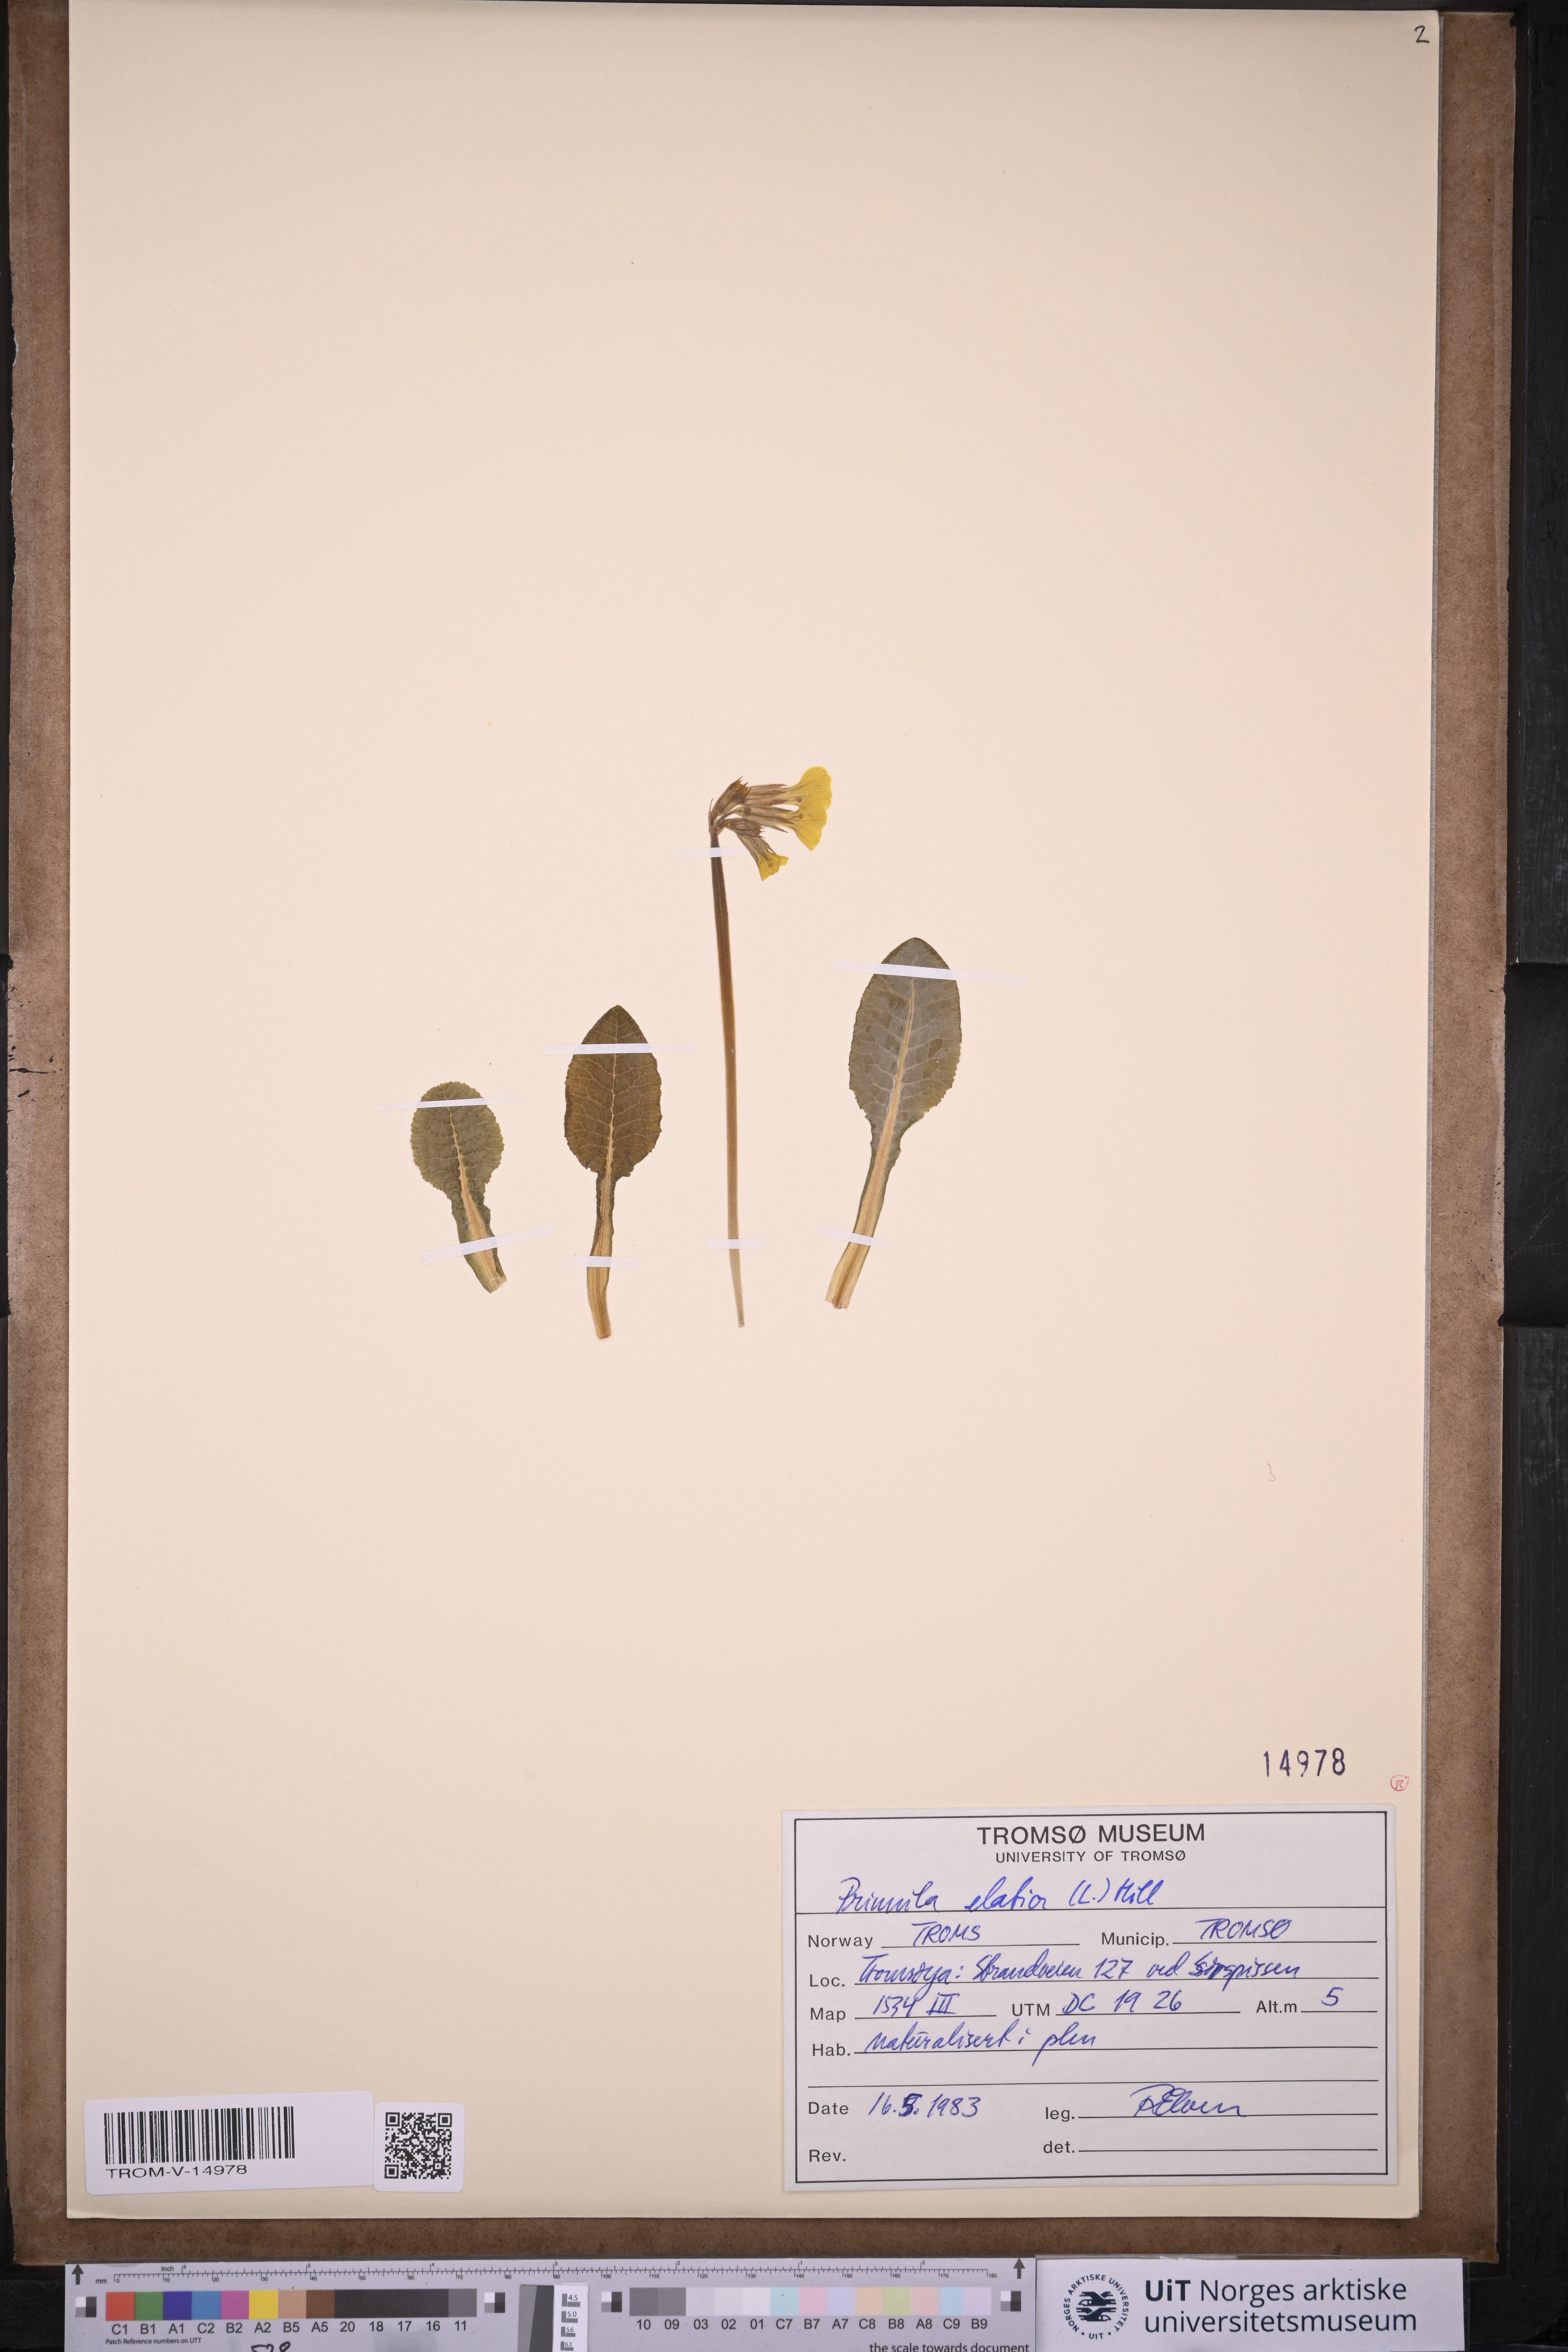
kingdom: Plantae
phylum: Tracheophyta
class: Magnoliopsida
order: Ericales
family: Primulaceae
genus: Primula
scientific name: Primula elatior
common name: Oxlip
